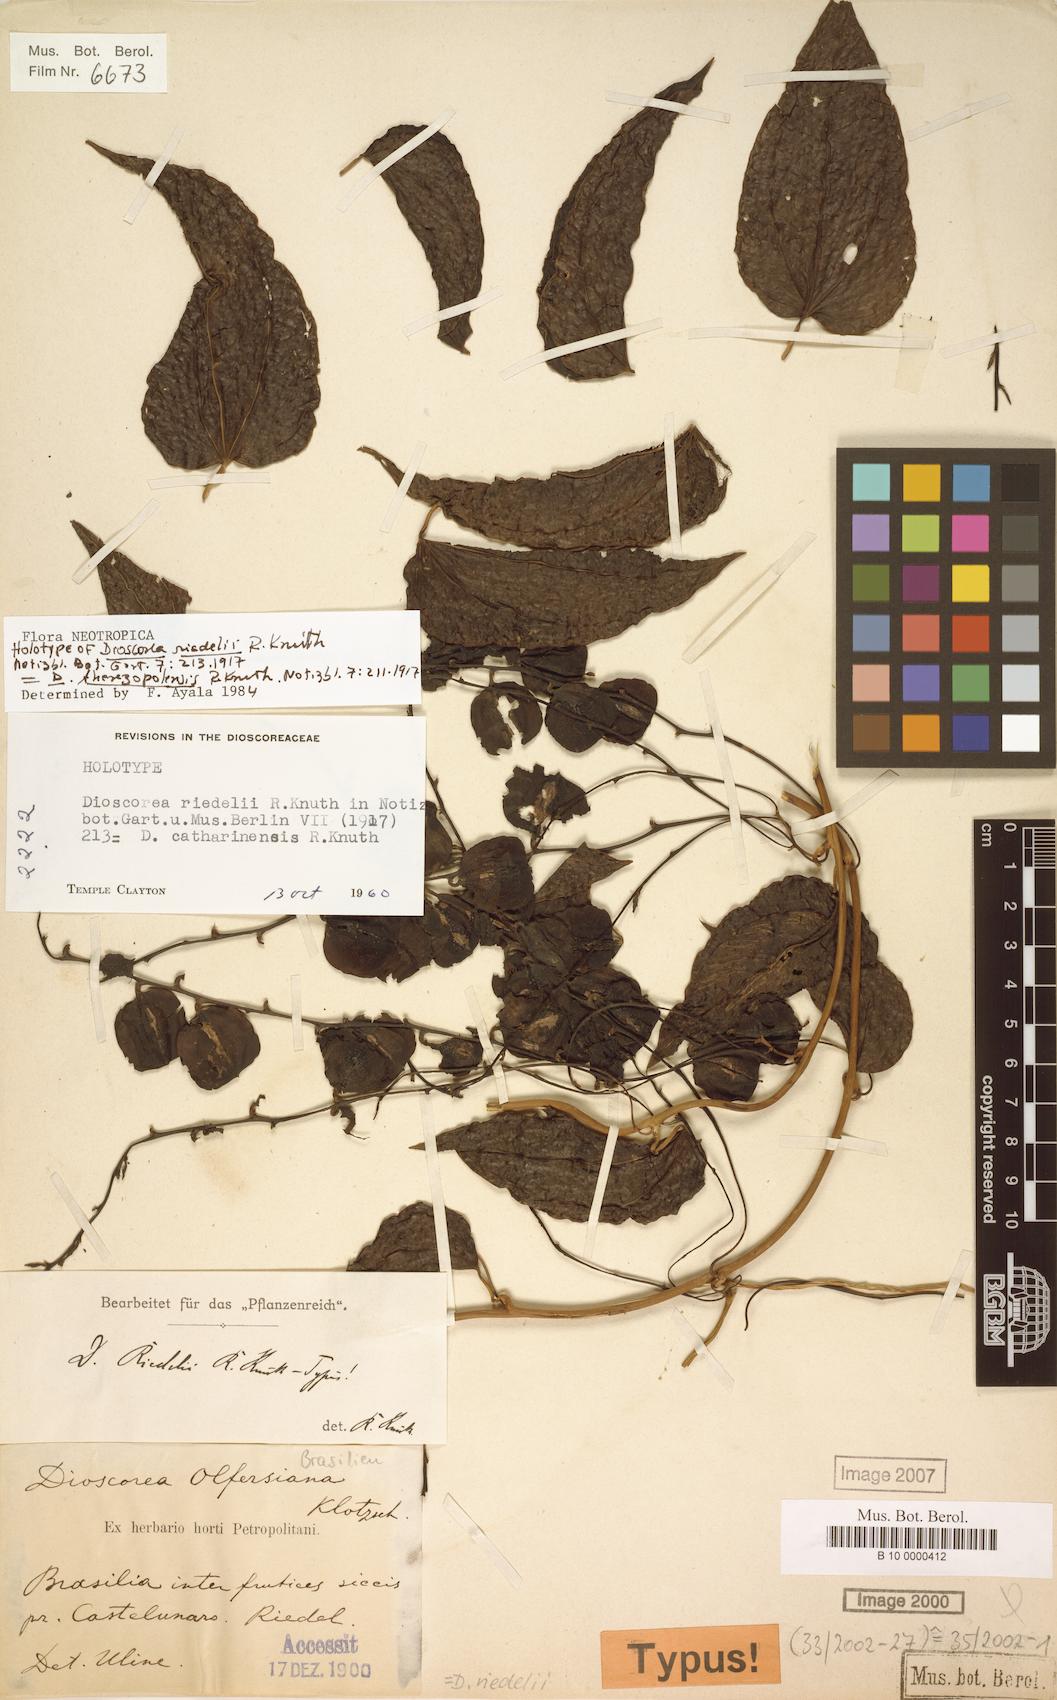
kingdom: Plantae
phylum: Tracheophyta
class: Liliopsida
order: Dioscoreales
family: Dioscoreaceae
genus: Dioscorea
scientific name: Dioscorea therezopolensis
